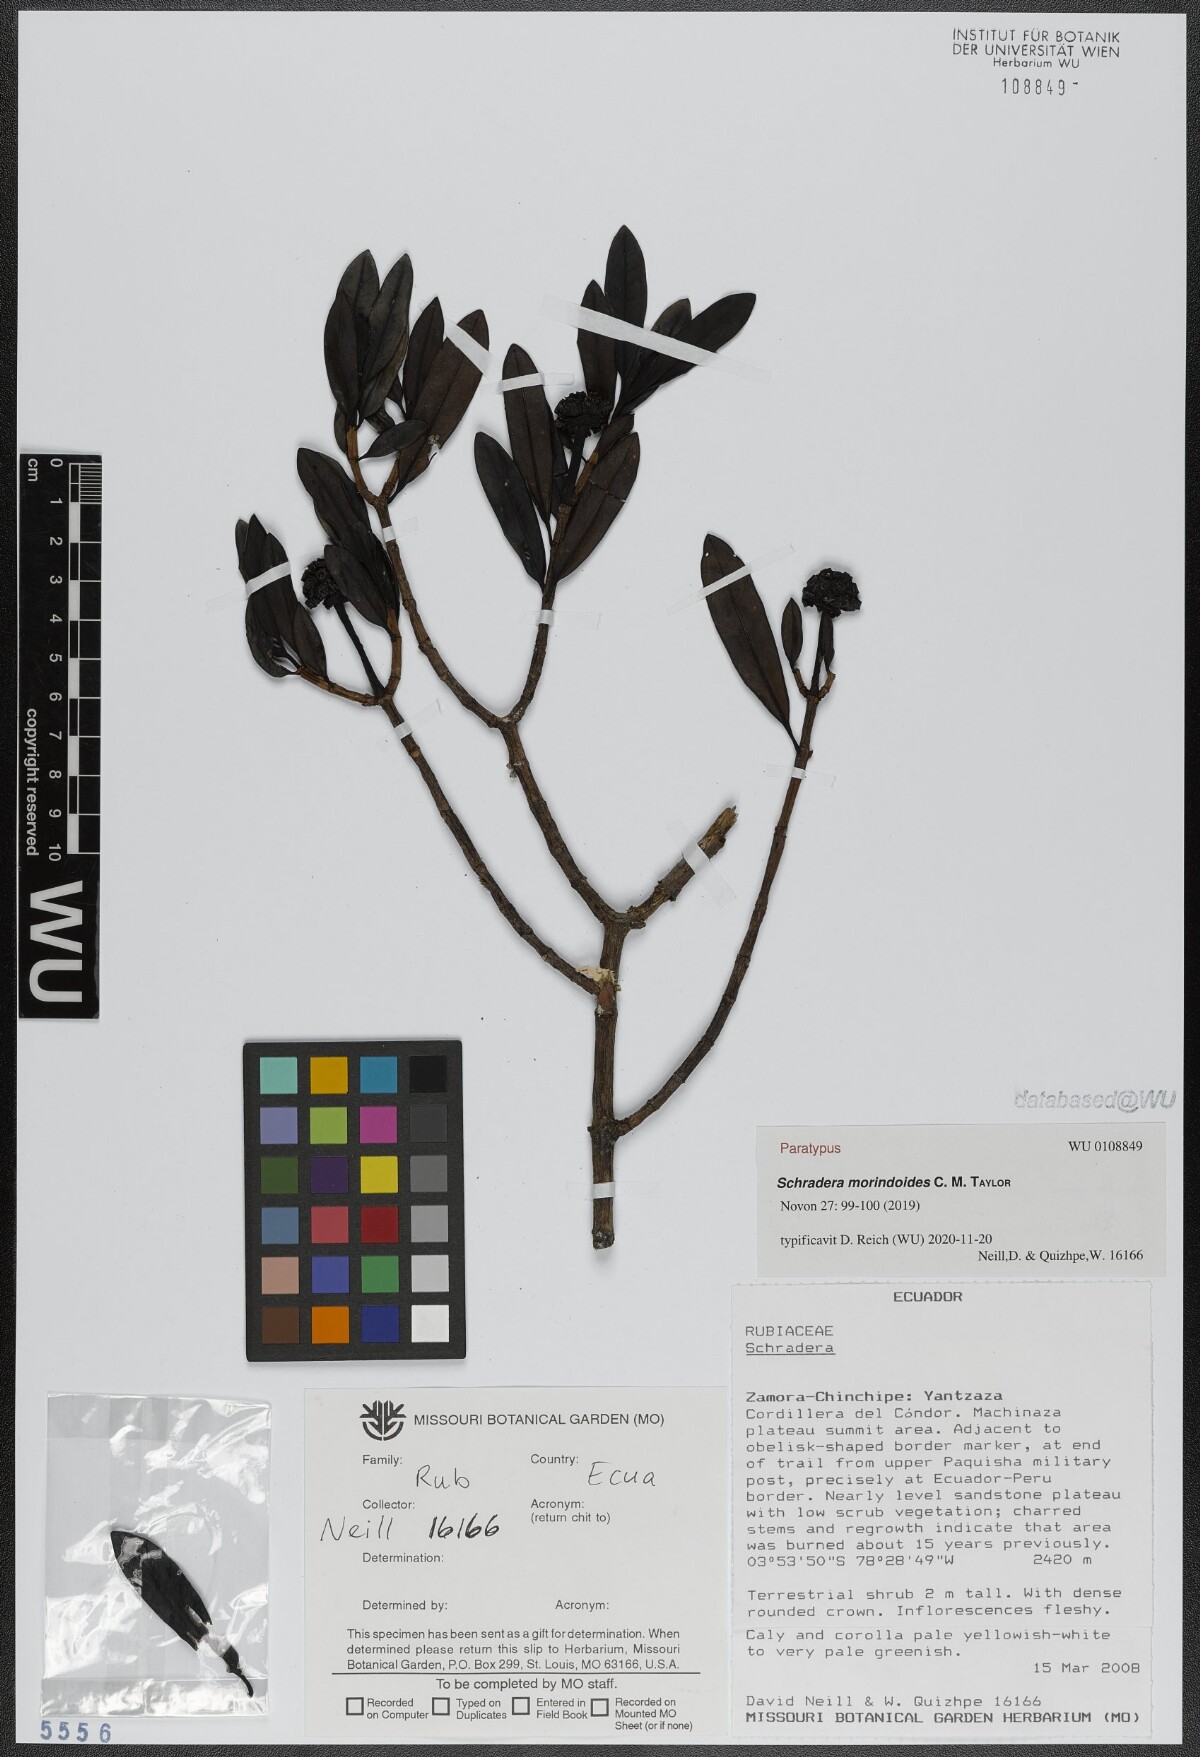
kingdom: Plantae
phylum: Tracheophyta
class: Magnoliopsida
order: Gentianales
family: Rubiaceae
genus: Schradera
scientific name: Schradera morindoides
